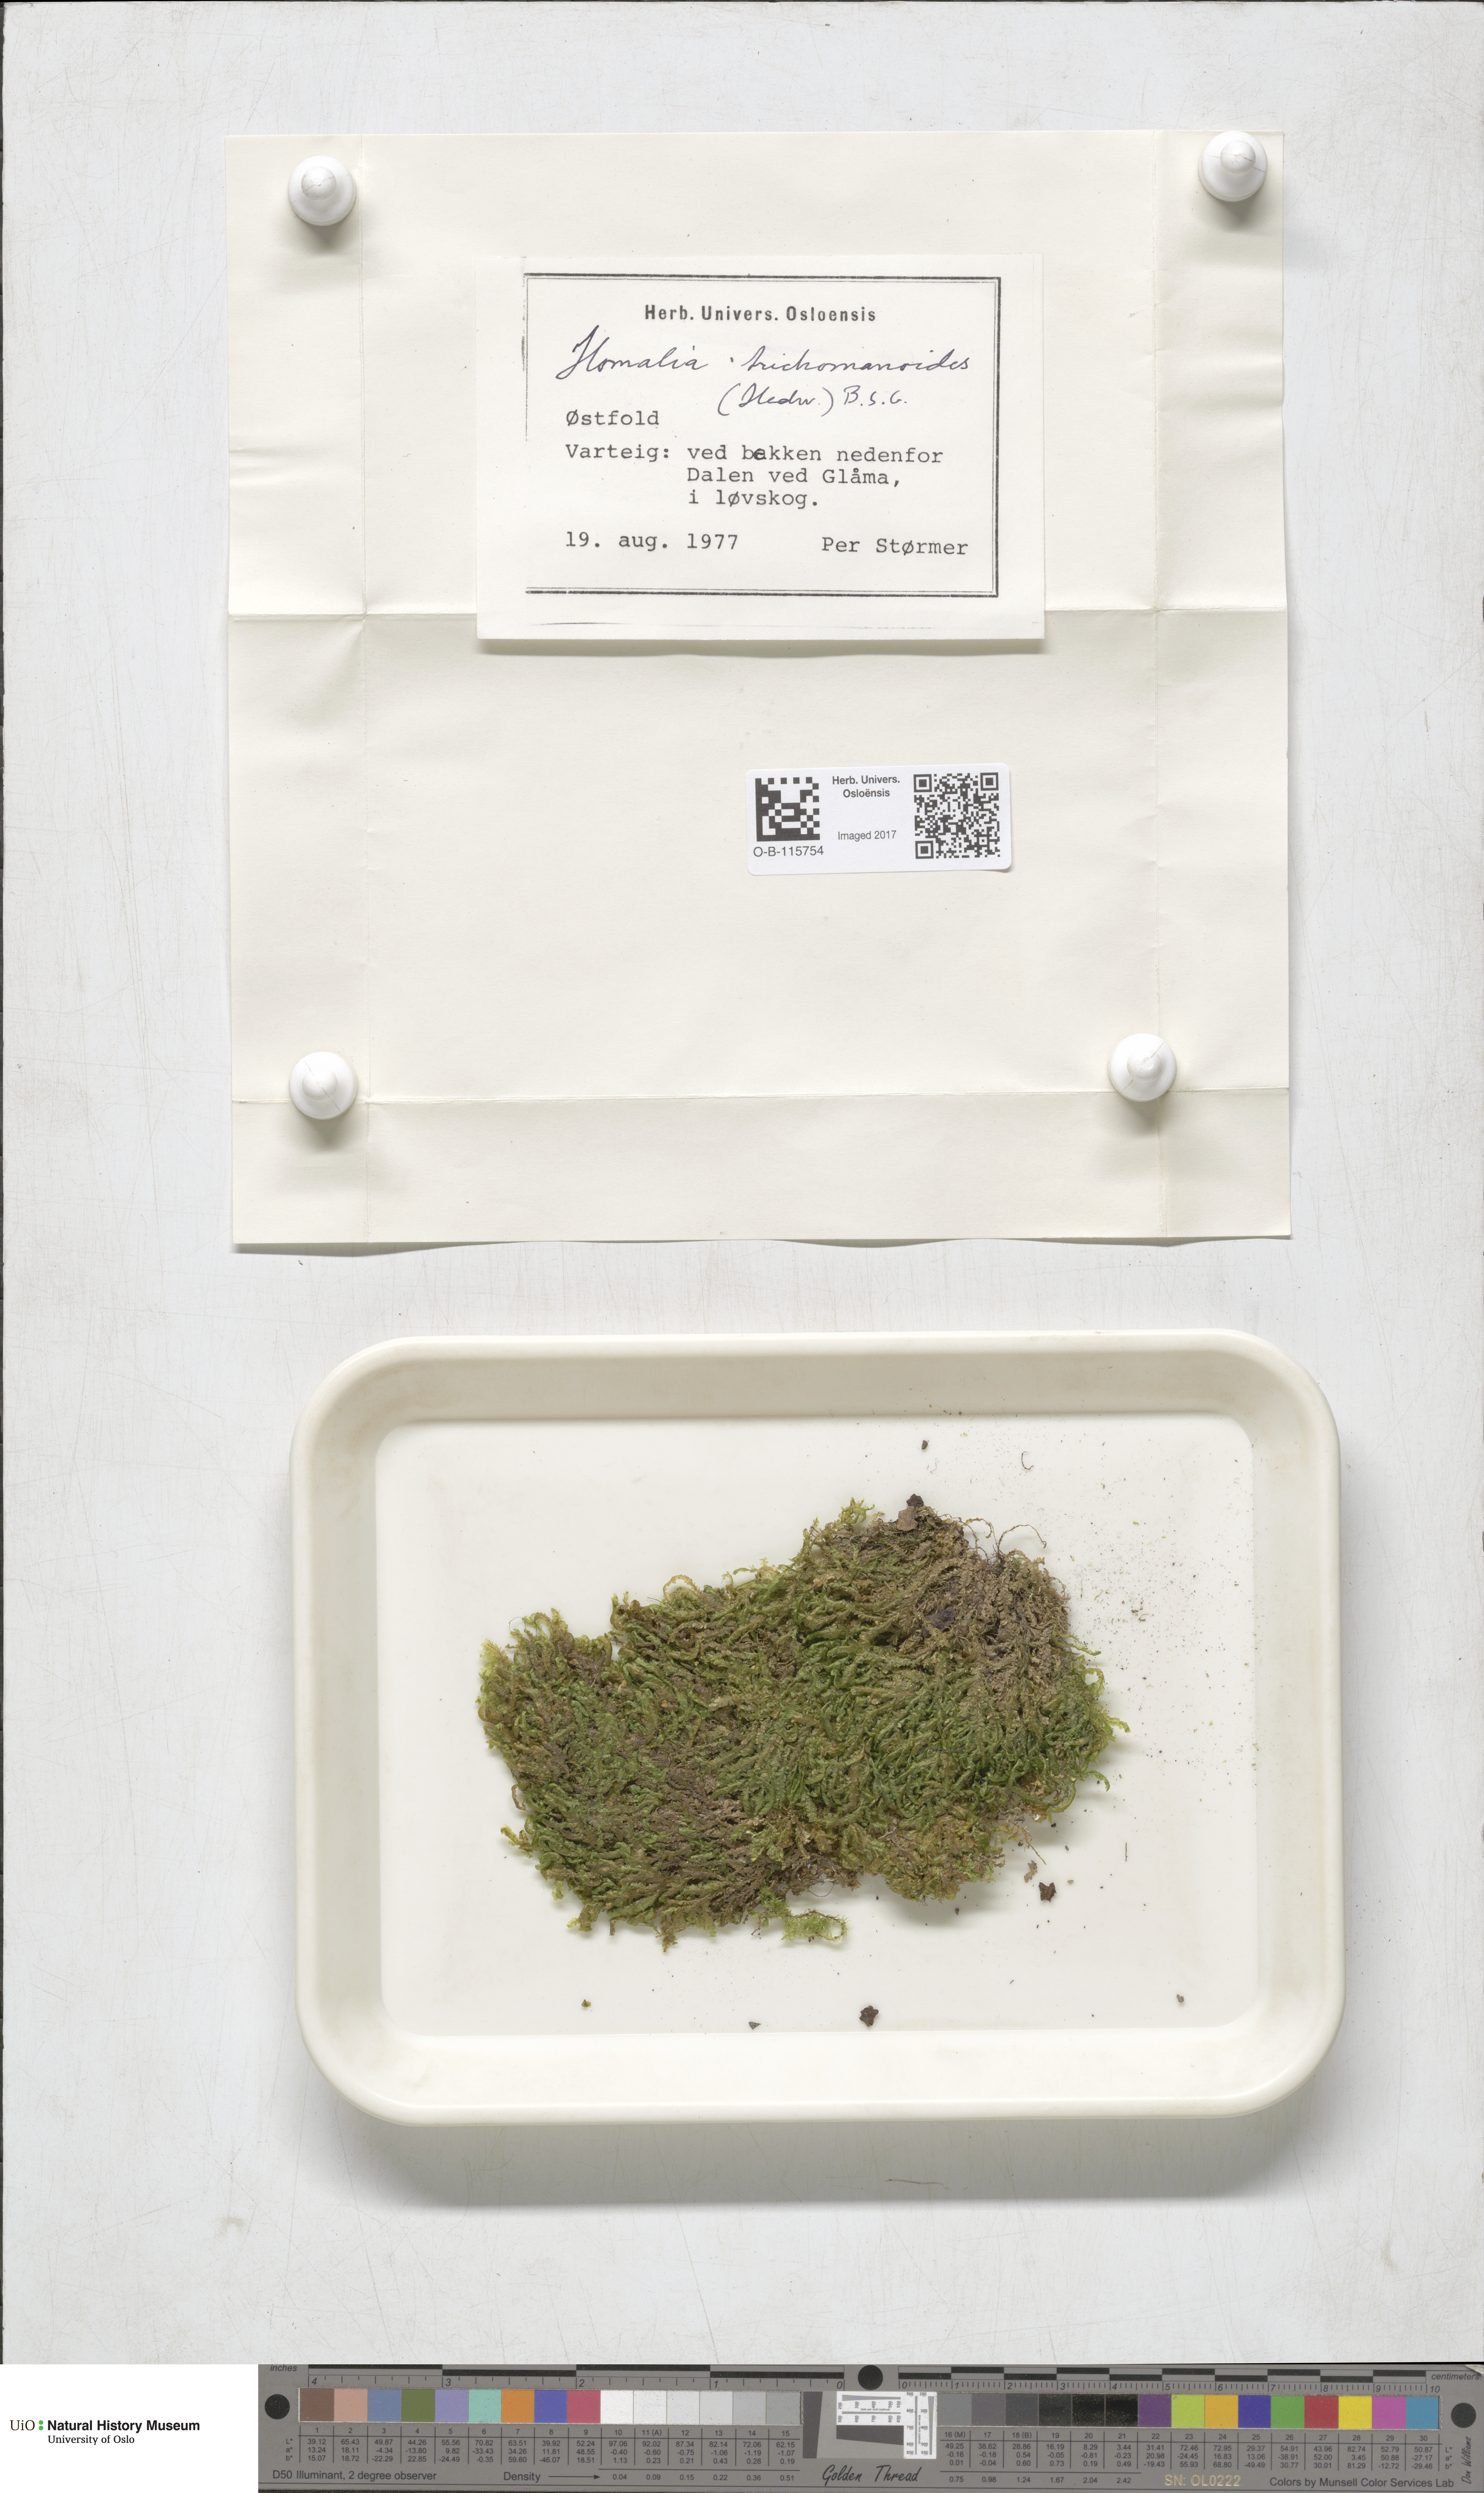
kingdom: Plantae
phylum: Bryophyta
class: Bryopsida
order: Hypnales
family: Neckeraceae
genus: Homalia
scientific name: Homalia trichomanoides
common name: Lime homalia moss
